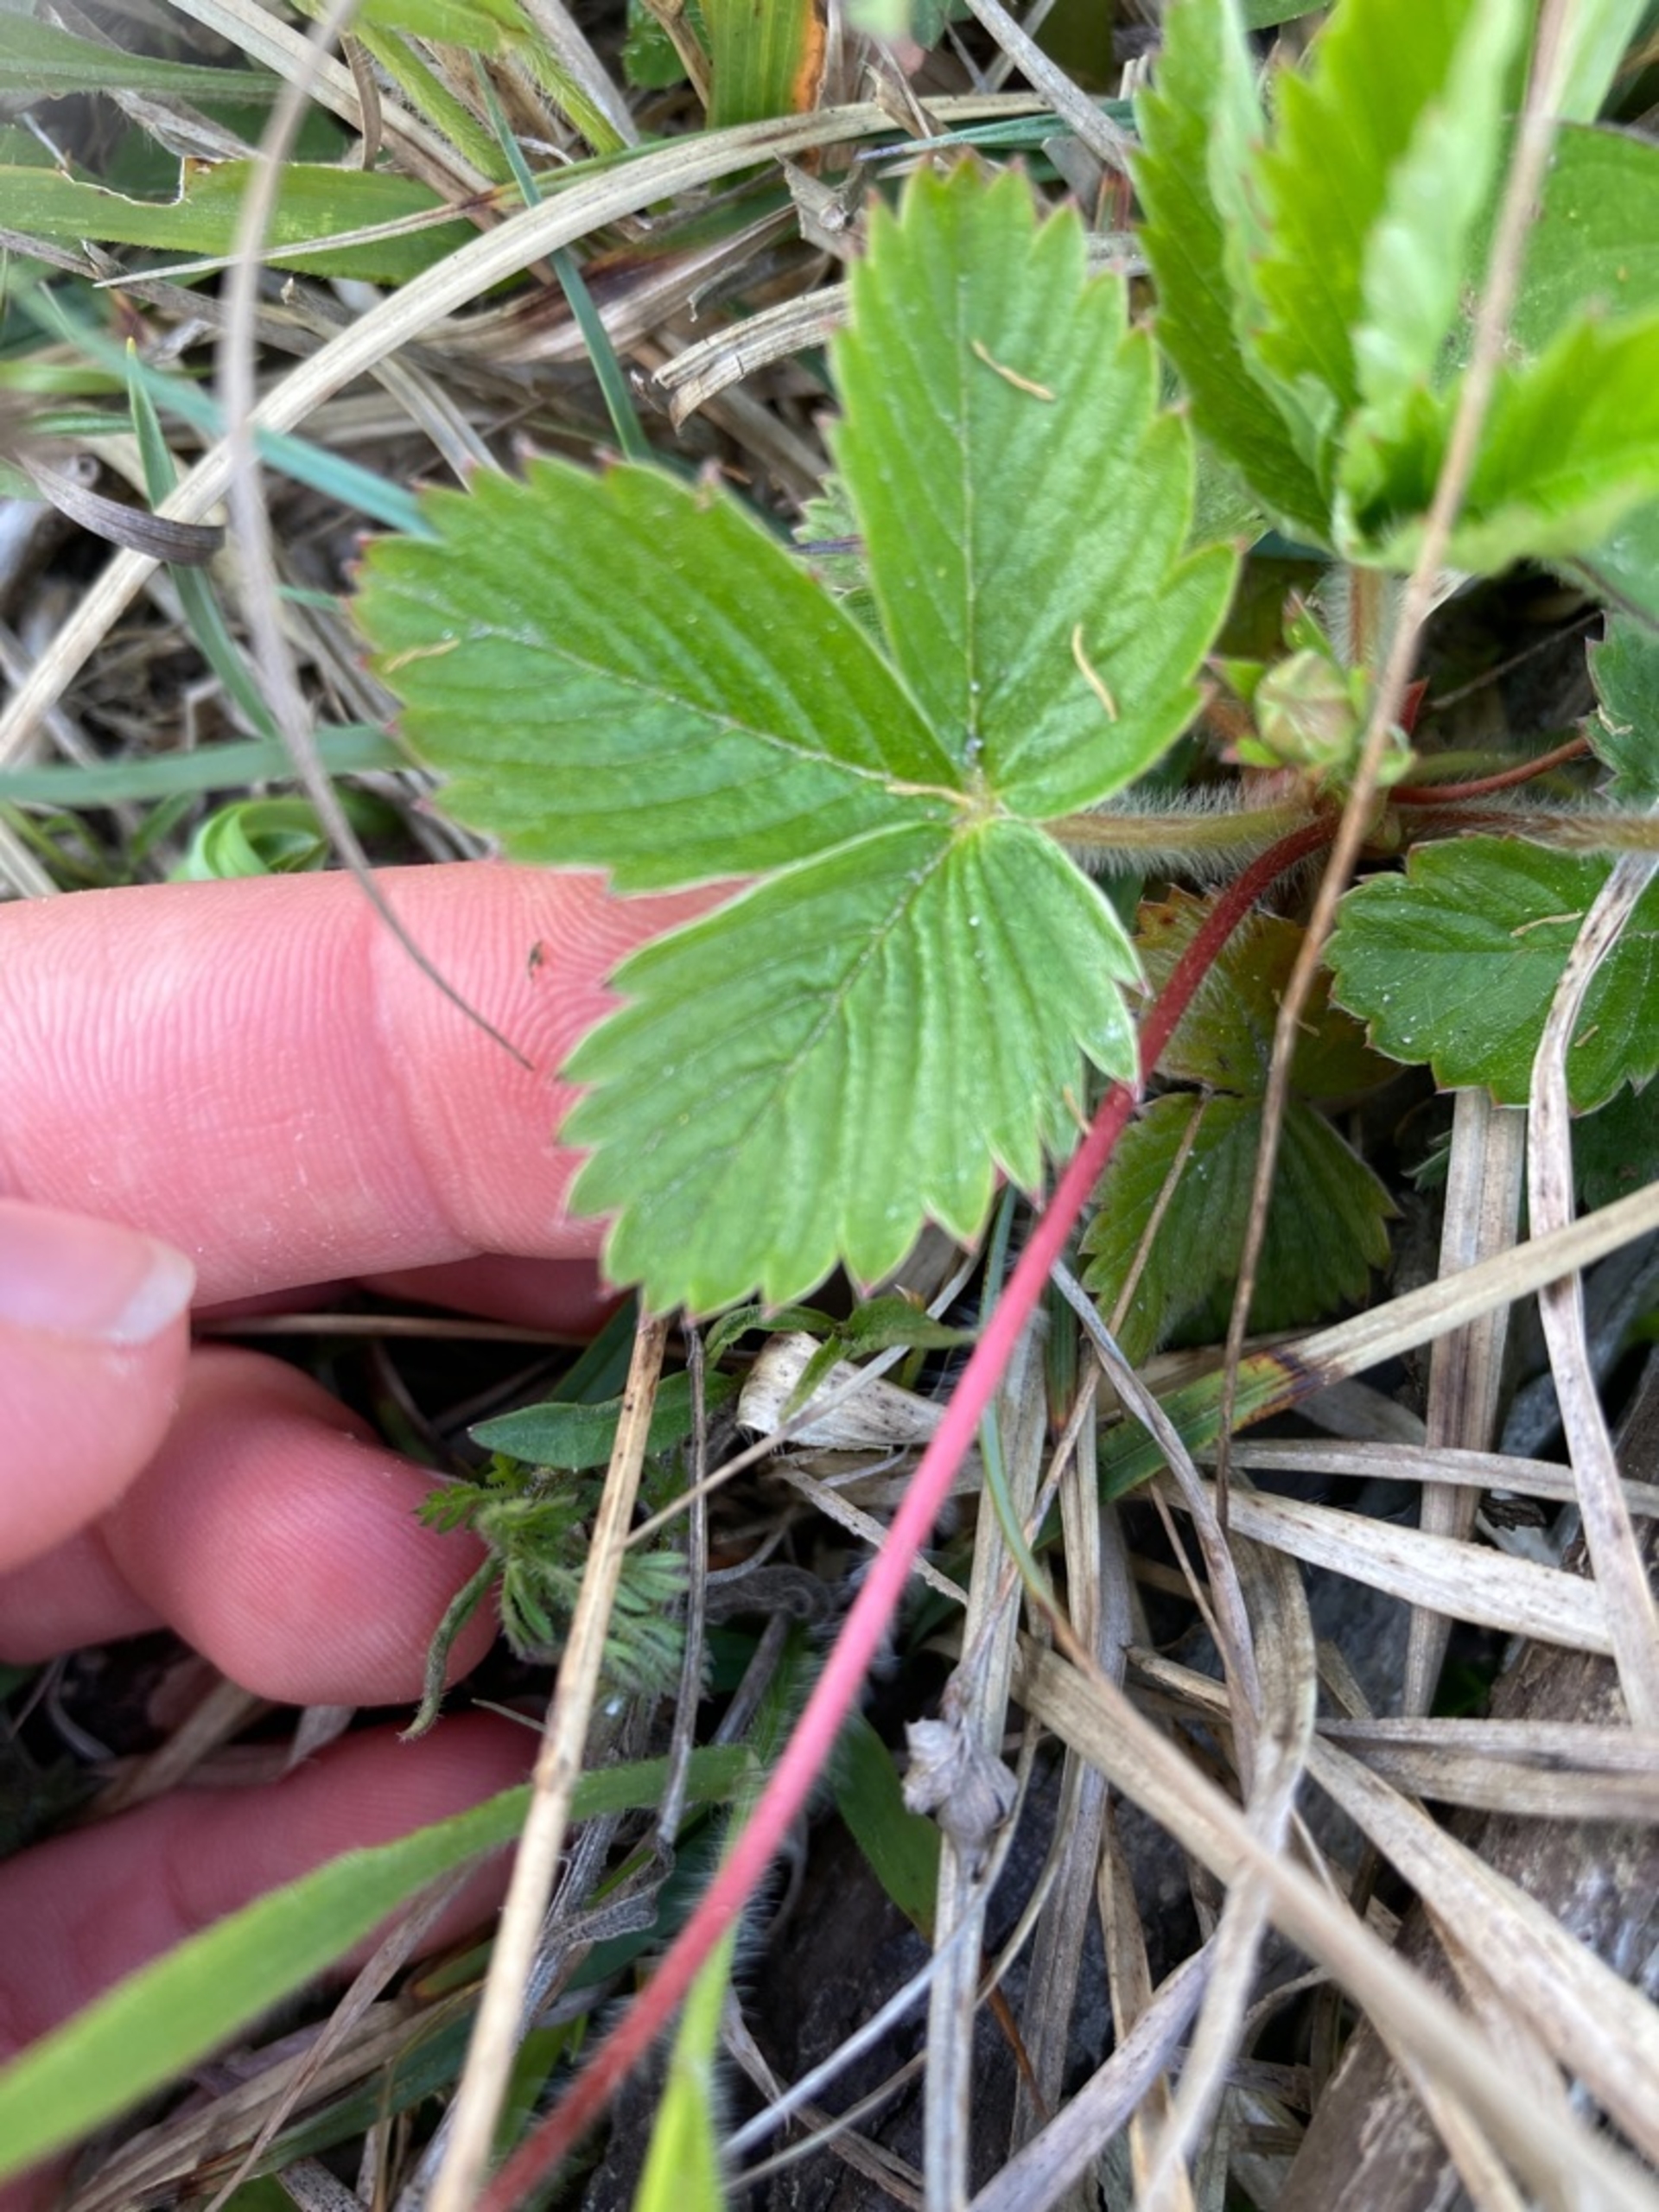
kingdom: Plantae
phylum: Tracheophyta
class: Magnoliopsida
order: Rosales
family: Rosaceae
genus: Fragaria
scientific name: Fragaria vesca
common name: Skov-jordbær
